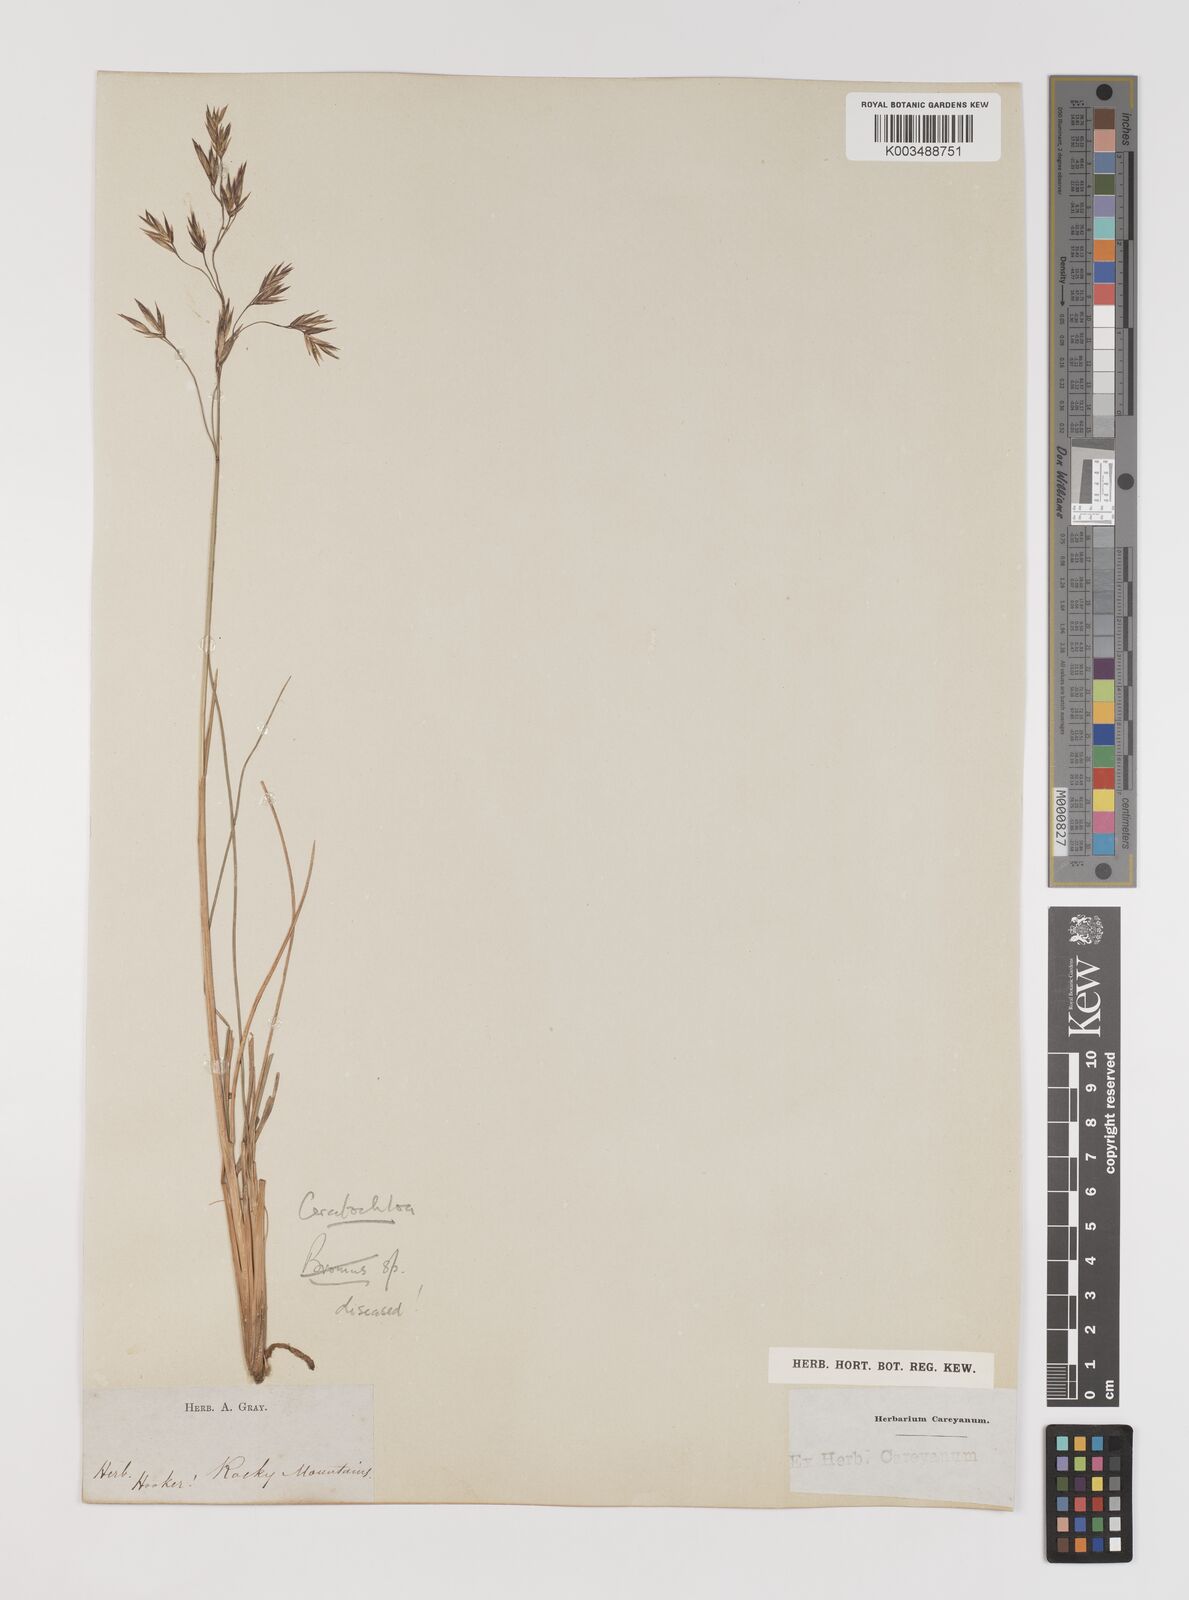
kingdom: Plantae
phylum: Tracheophyta
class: Liliopsida
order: Poales
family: Poaceae
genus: Bromus
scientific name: Bromus
